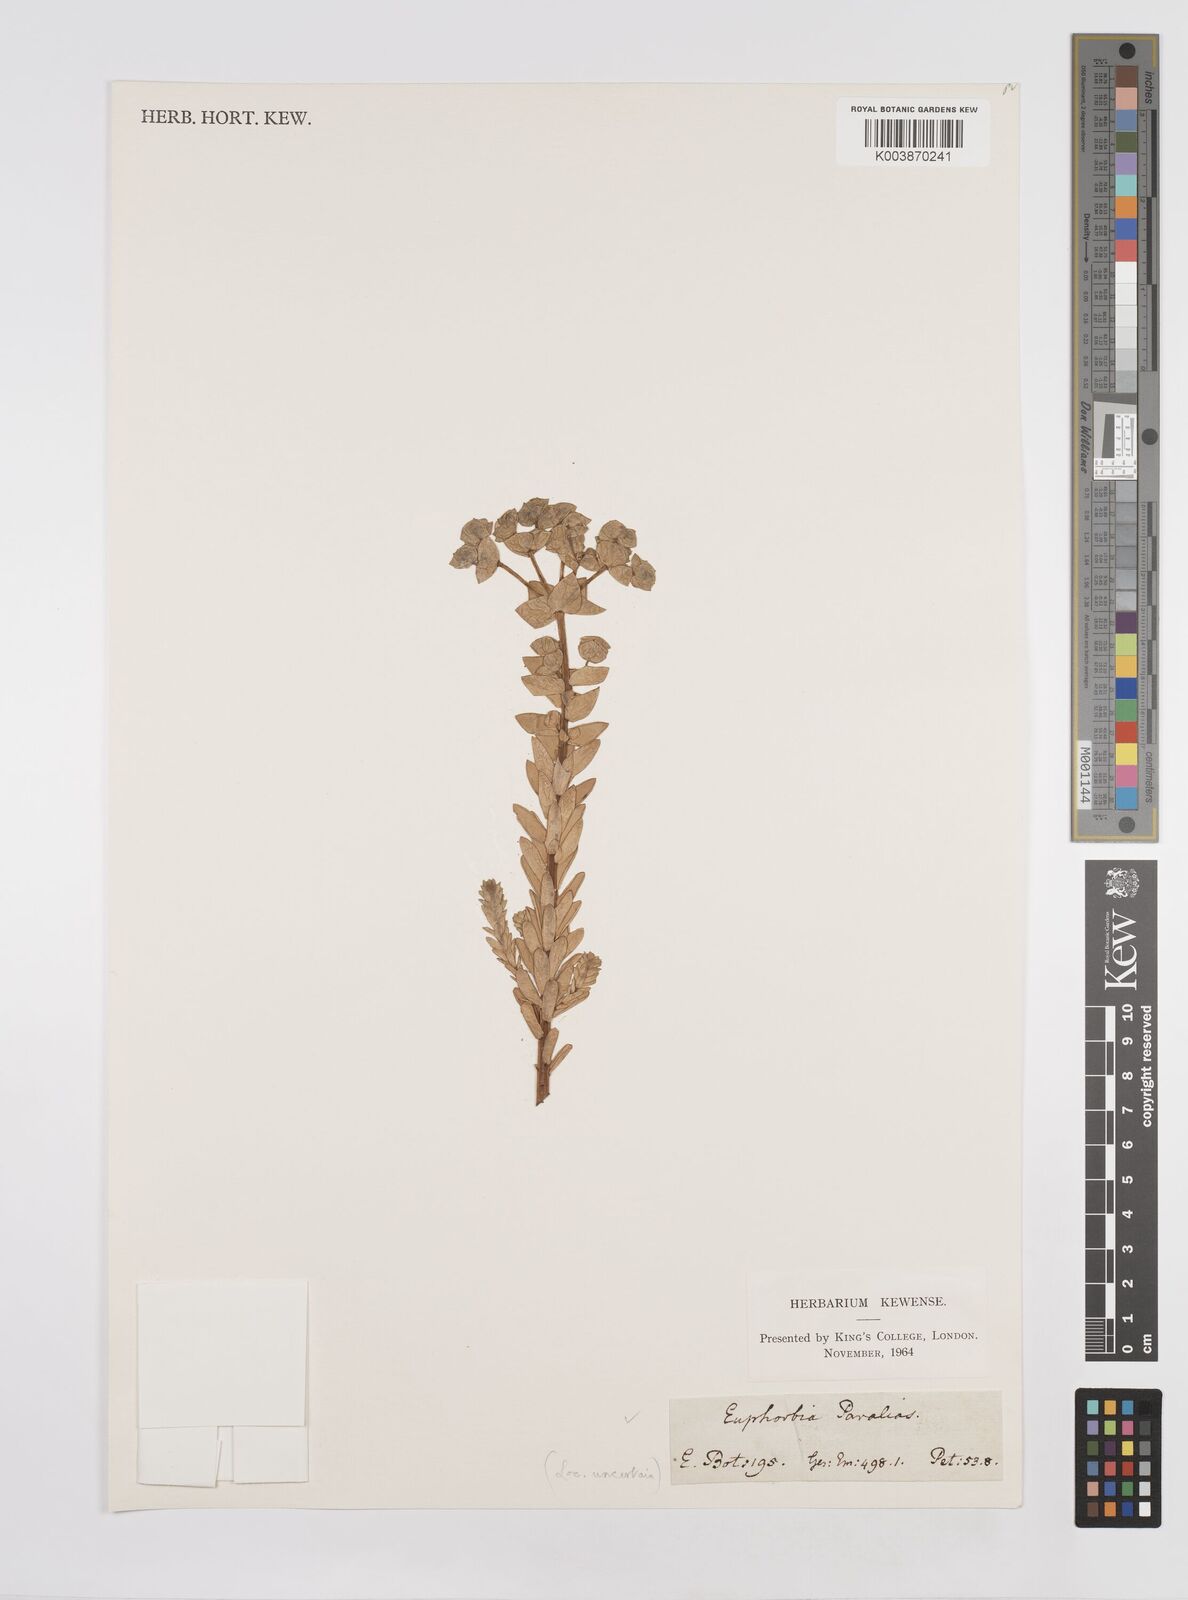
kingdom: Plantae
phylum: Tracheophyta
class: Magnoliopsida
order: Malpighiales
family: Euphorbiaceae
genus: Euphorbia
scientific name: Euphorbia paralias
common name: Sea spurge
